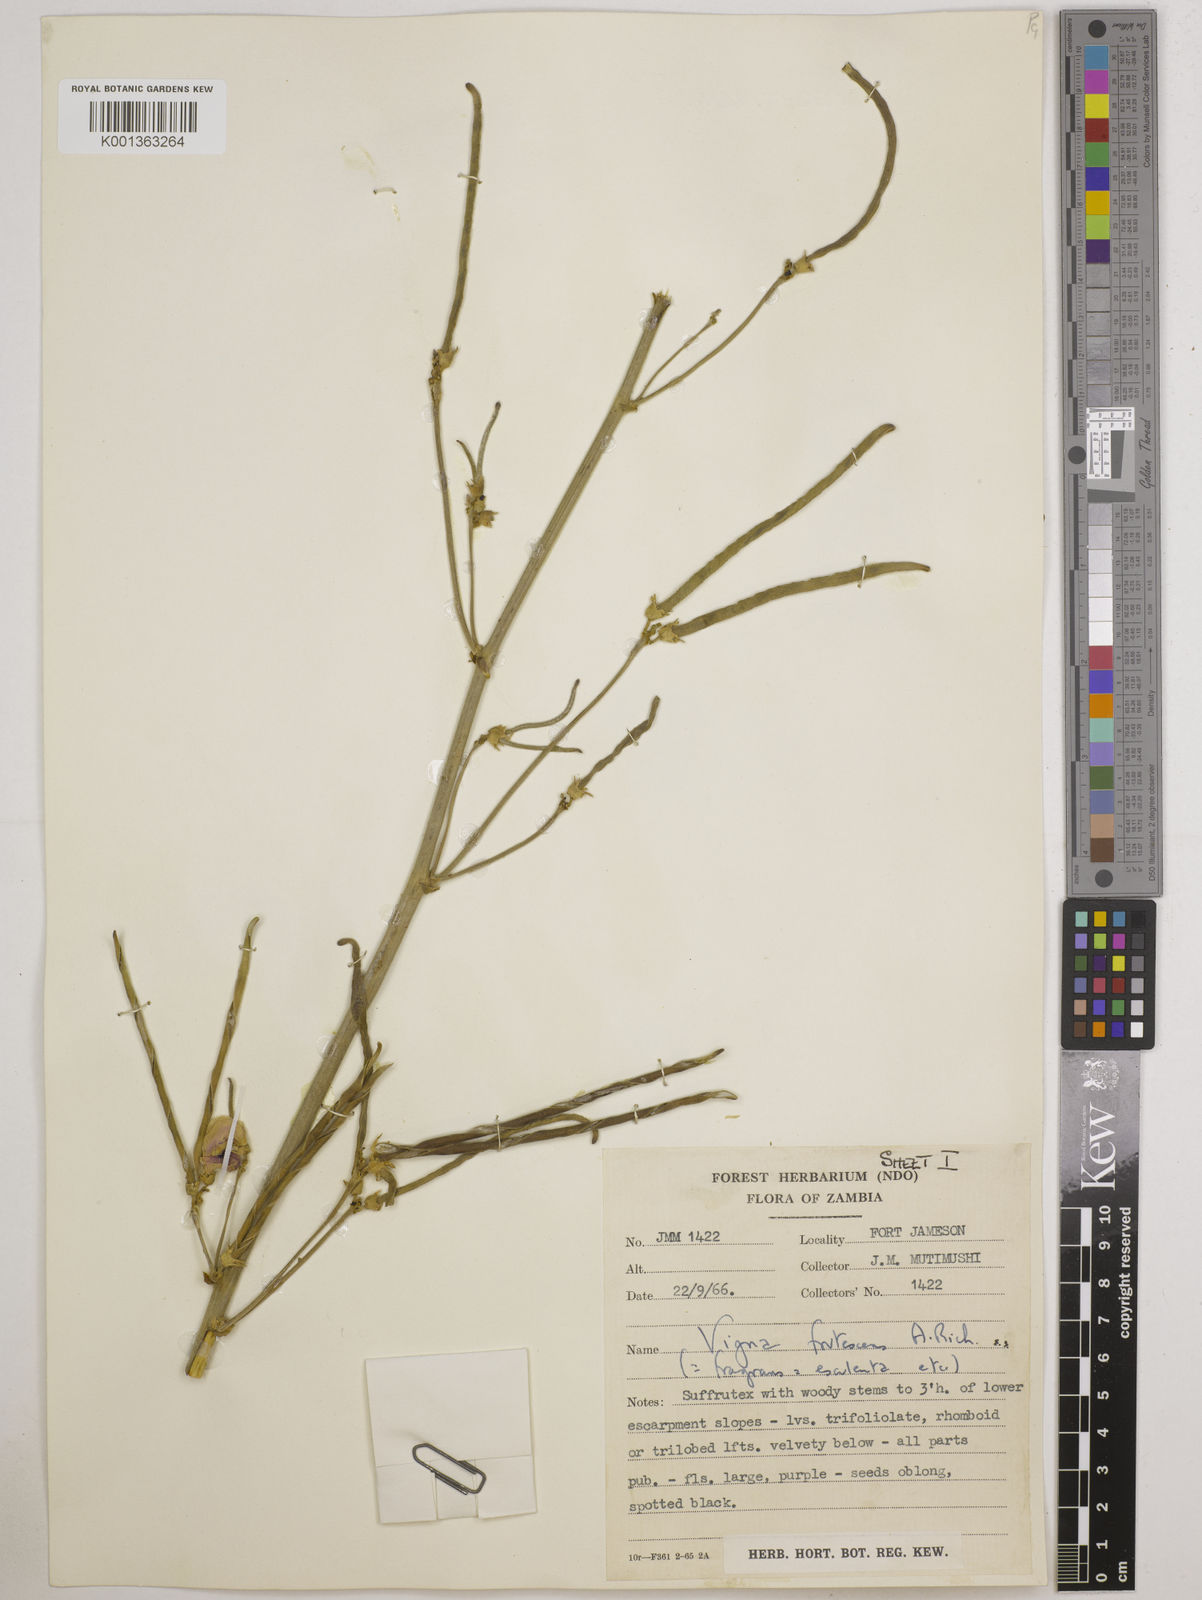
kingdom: Plantae
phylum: Tracheophyta
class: Magnoliopsida
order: Fabales
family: Fabaceae
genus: Vigna
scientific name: Vigna
